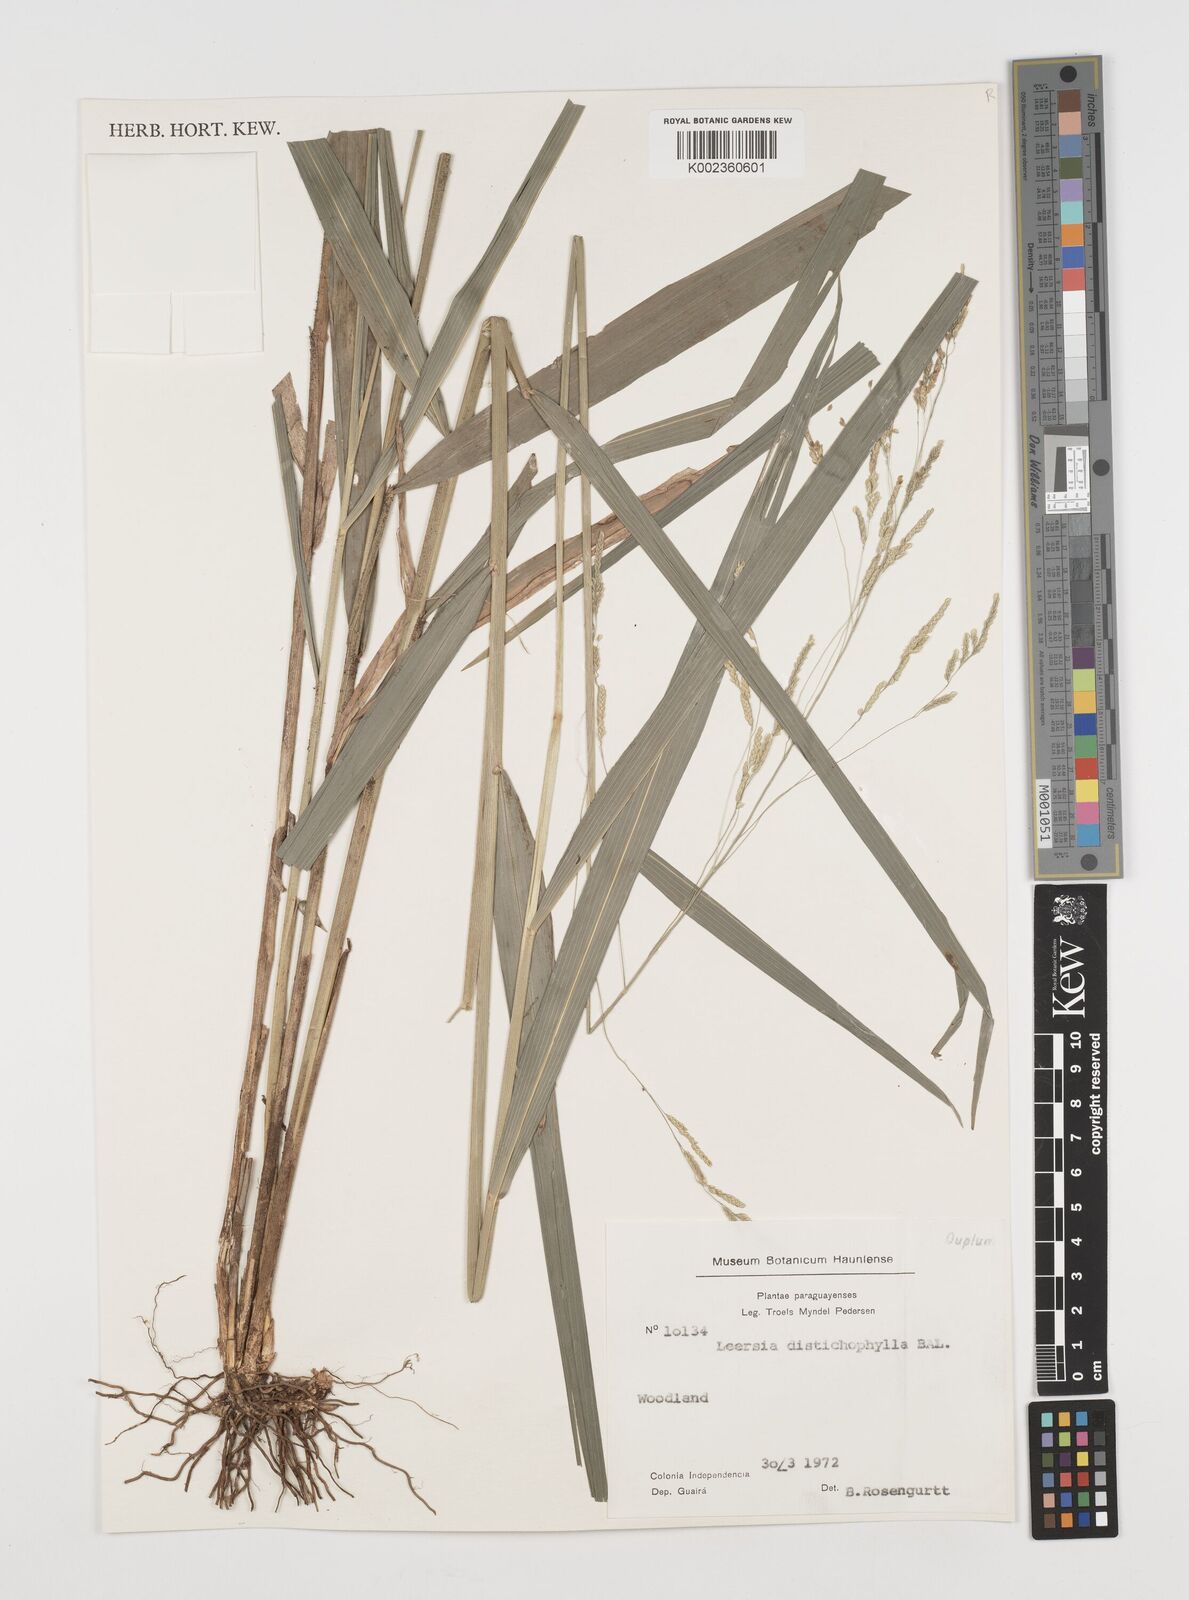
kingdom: Plantae
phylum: Tracheophyta
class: Liliopsida
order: Poales
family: Poaceae
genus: Leersia
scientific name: Leersia ligularis
